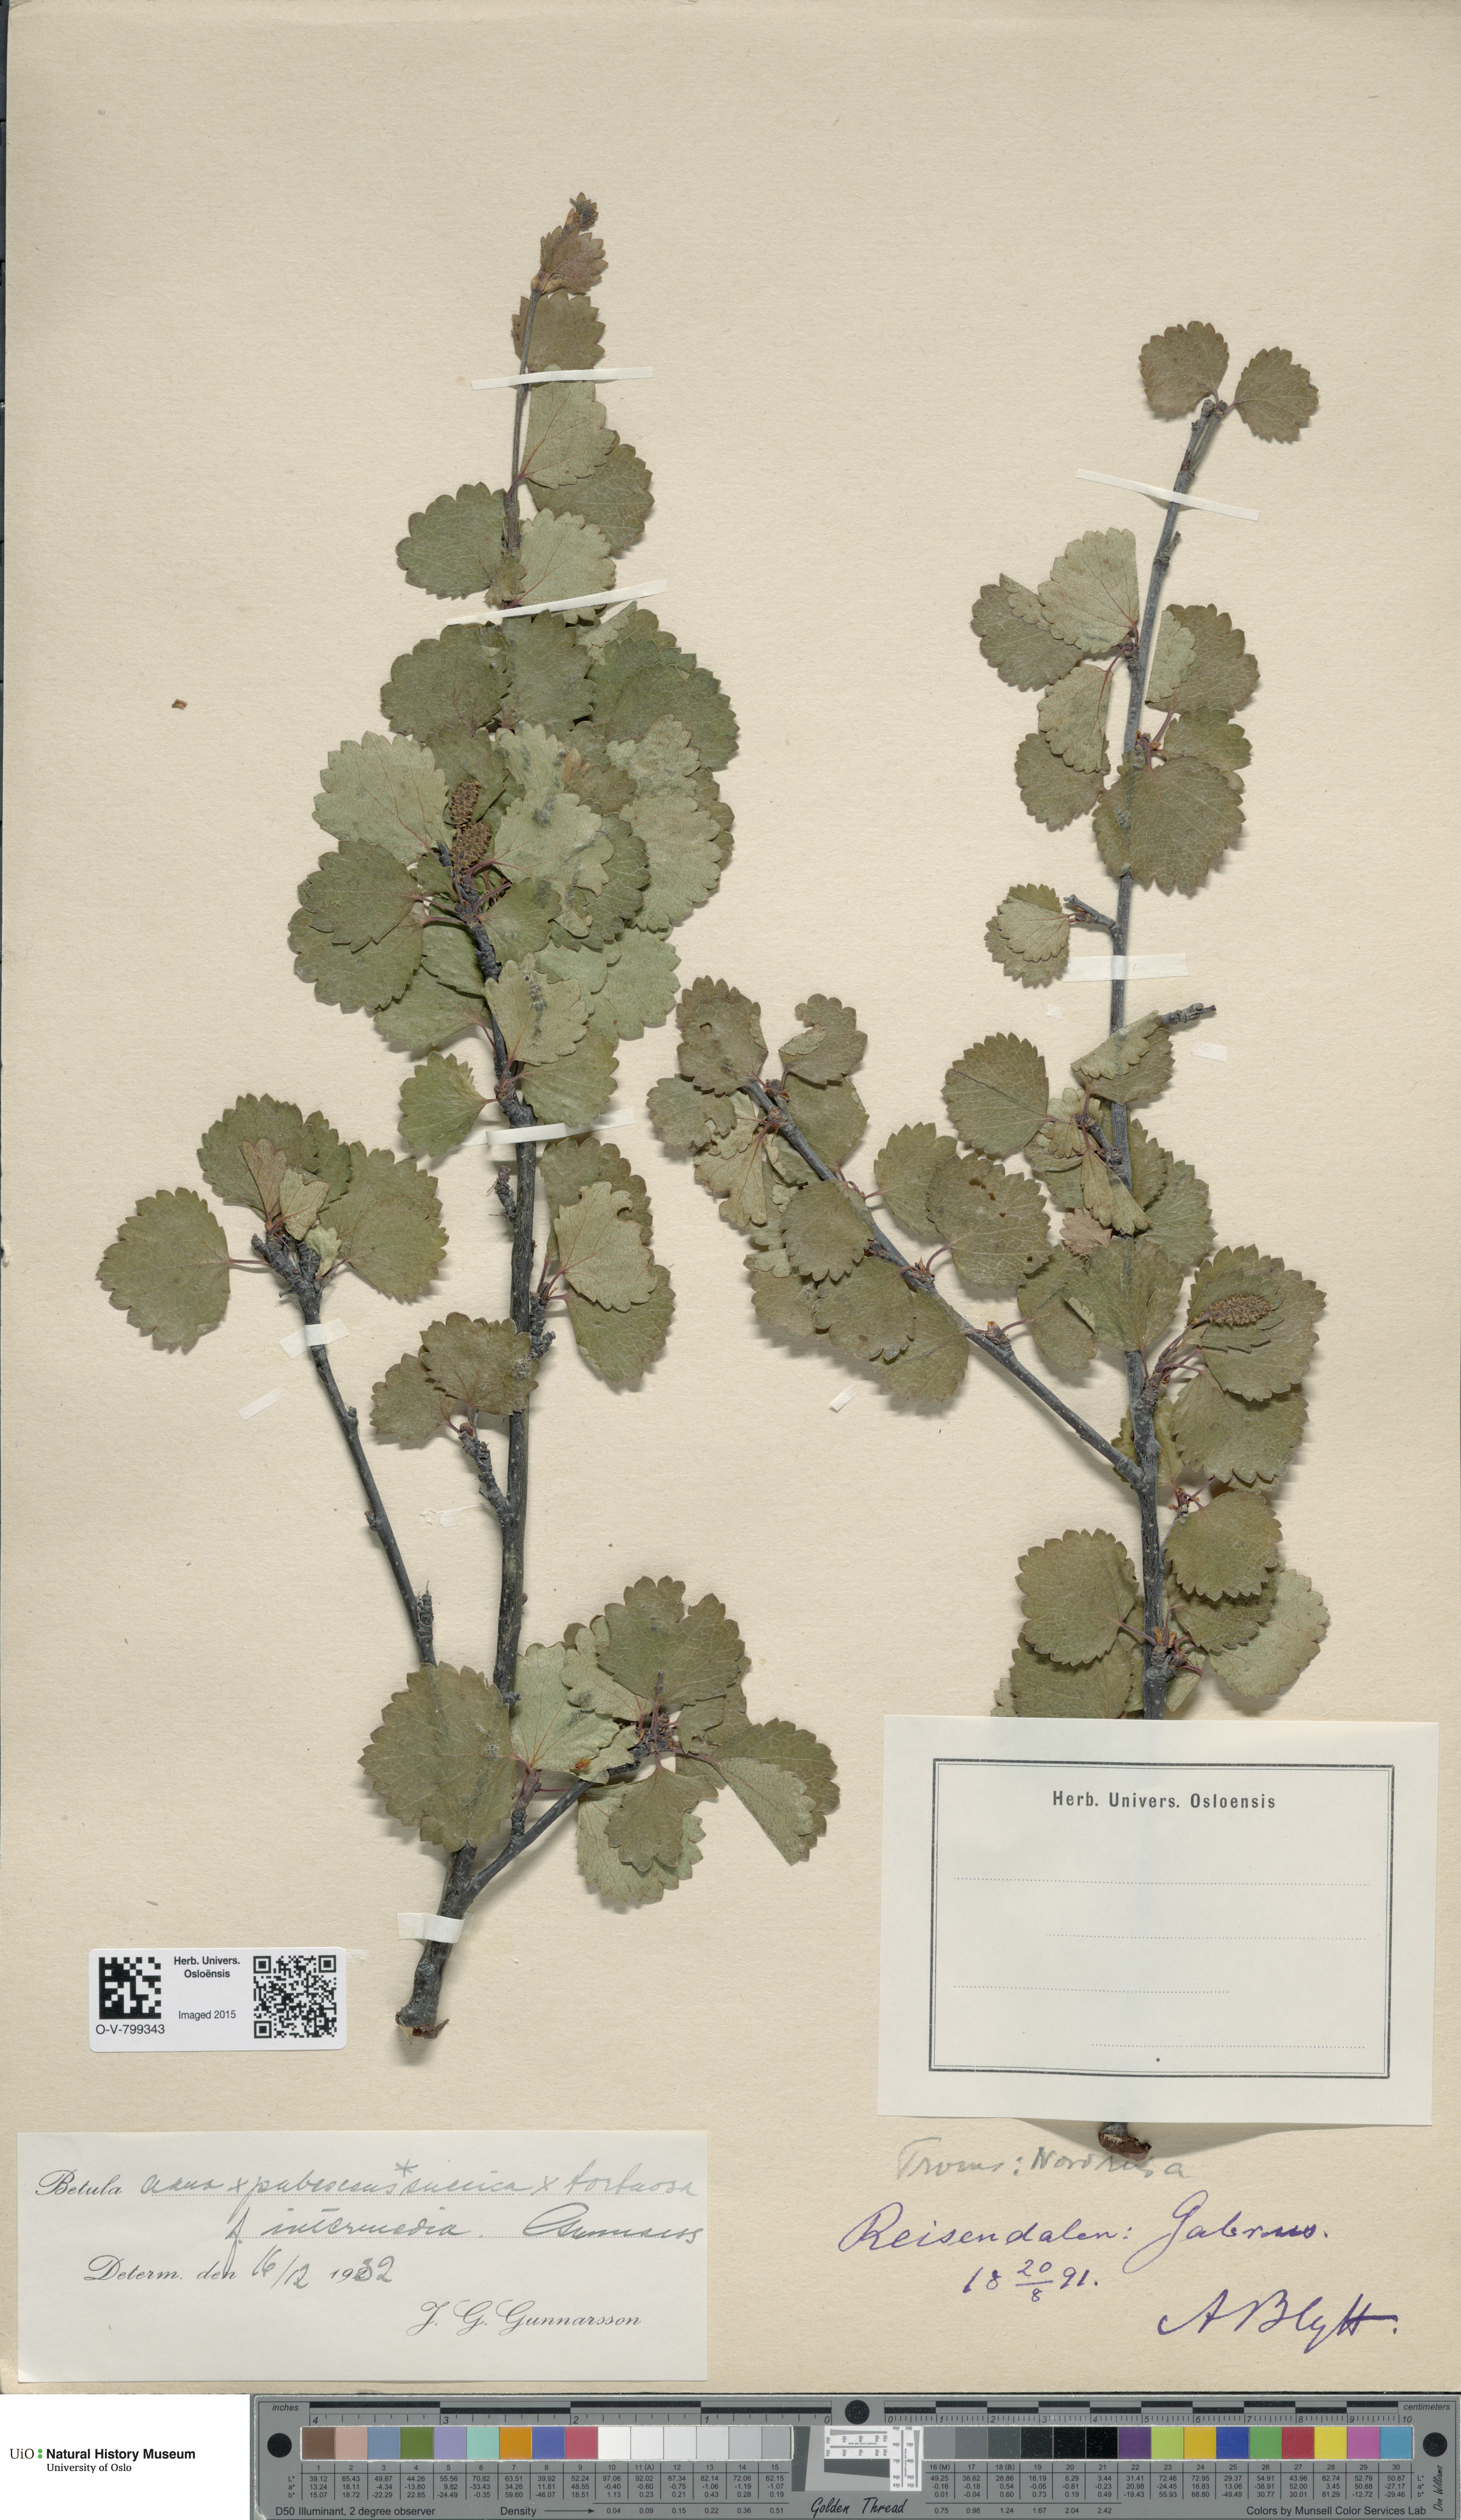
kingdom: Plantae
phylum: Tracheophyta
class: Magnoliopsida
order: Fagales
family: Betulaceae
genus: Betula
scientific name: Betula pubescens
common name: Downy birch
